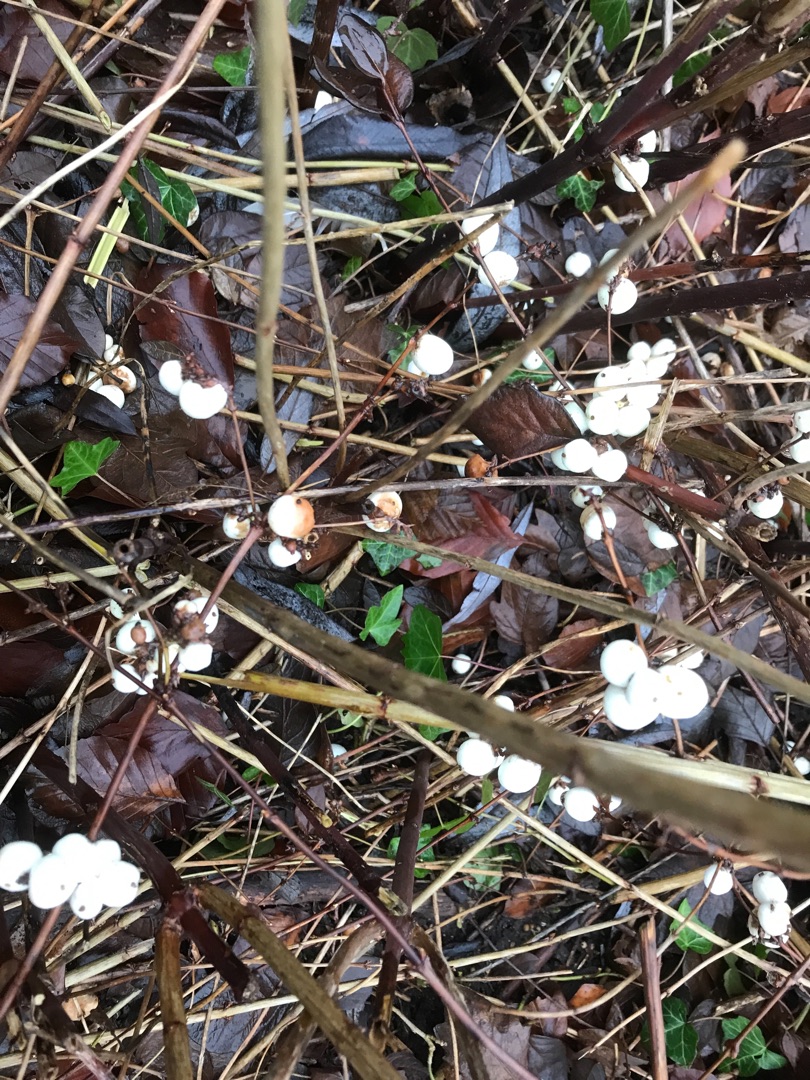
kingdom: Plantae
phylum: Tracheophyta
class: Magnoliopsida
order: Dipsacales
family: Caprifoliaceae
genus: Symphoricarpos
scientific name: Symphoricarpos albus
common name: Almindelig snebær
